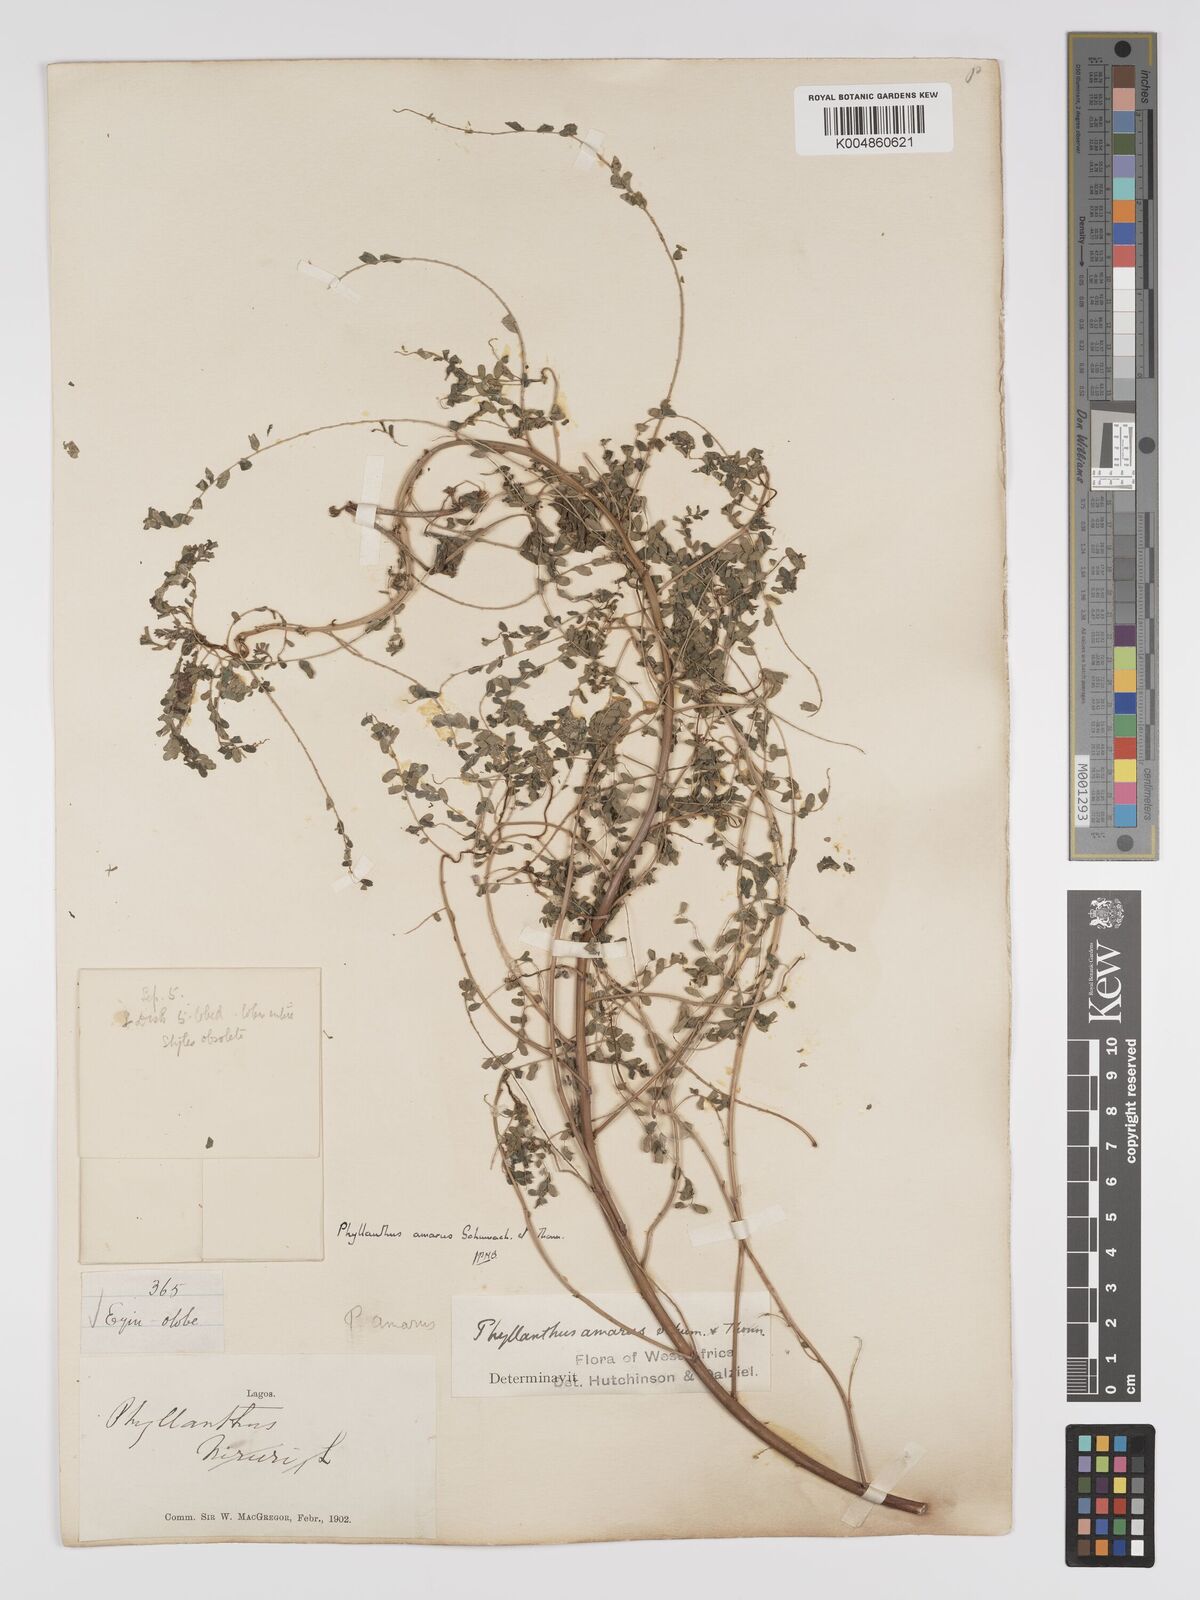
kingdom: Plantae
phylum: Tracheophyta
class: Magnoliopsida
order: Malpighiales
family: Phyllanthaceae
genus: Phyllanthus
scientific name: Phyllanthus amarus
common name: Carry me seed
